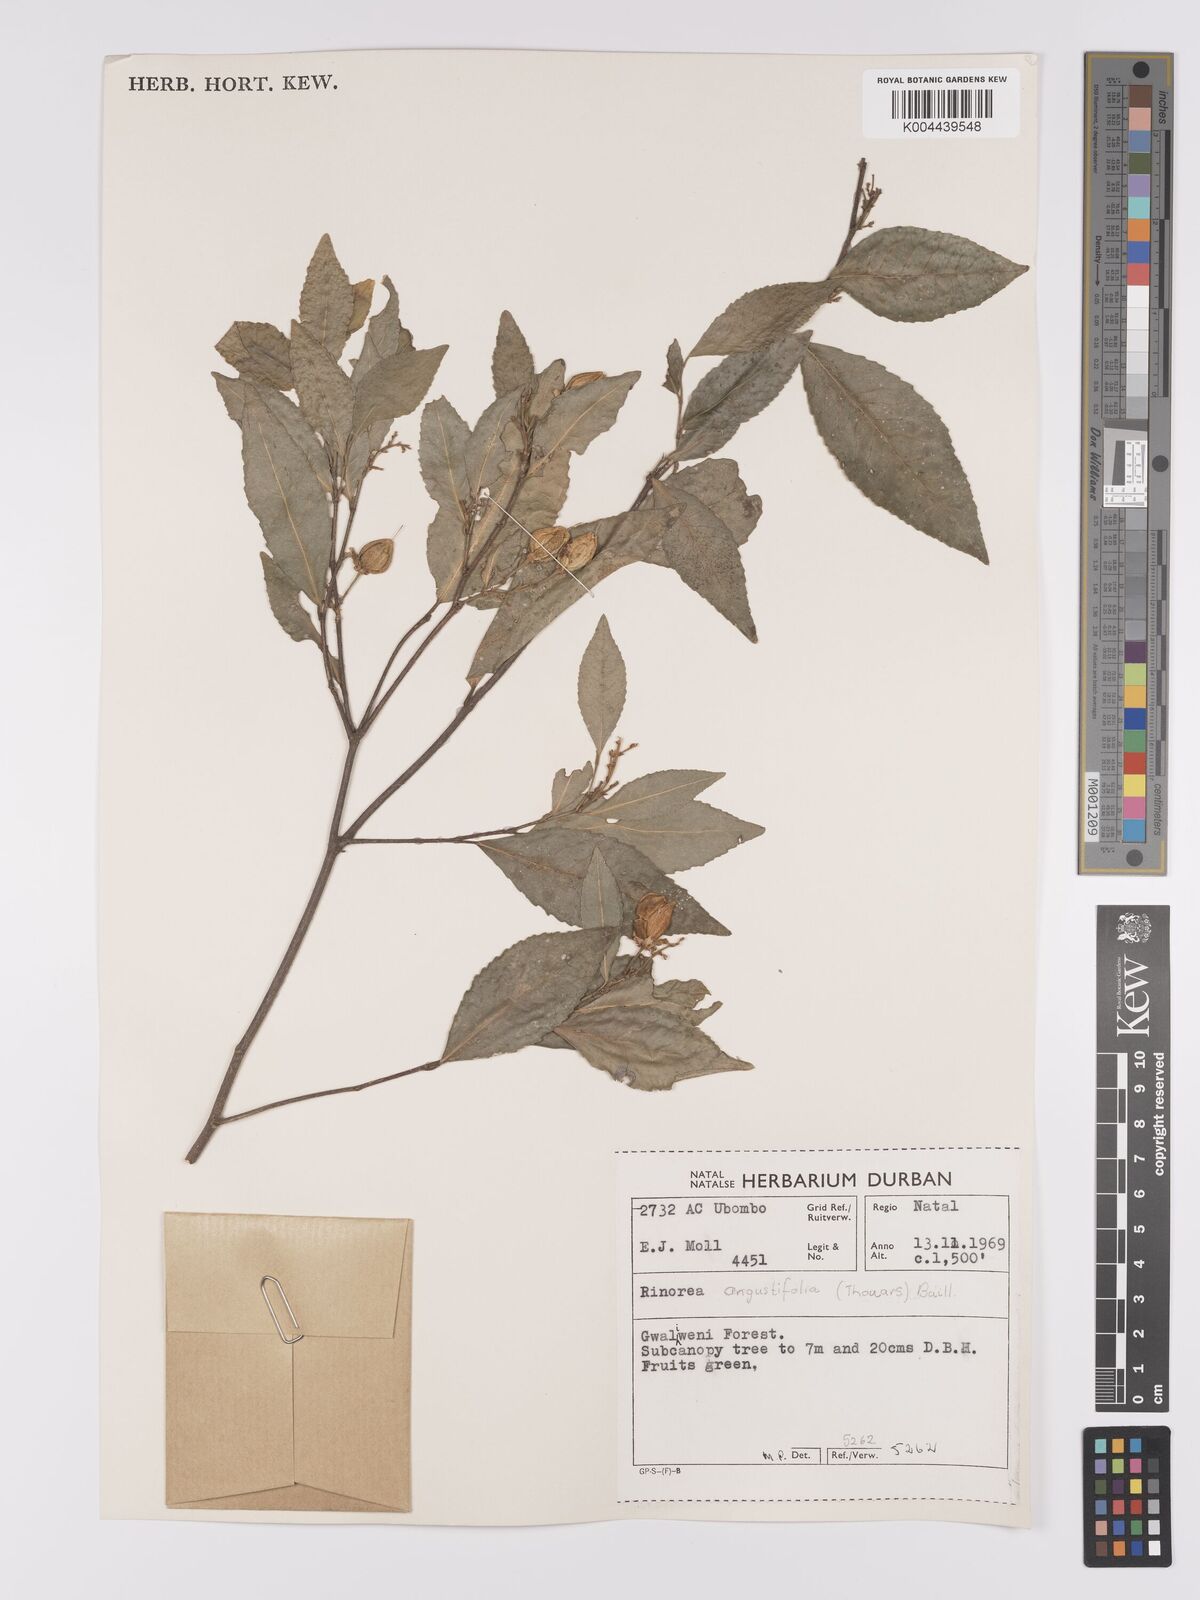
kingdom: Plantae
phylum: Tracheophyta
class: Magnoliopsida
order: Malpighiales
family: Violaceae
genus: Rinorea
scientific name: Rinorea angustifolia
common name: White violet-bush
